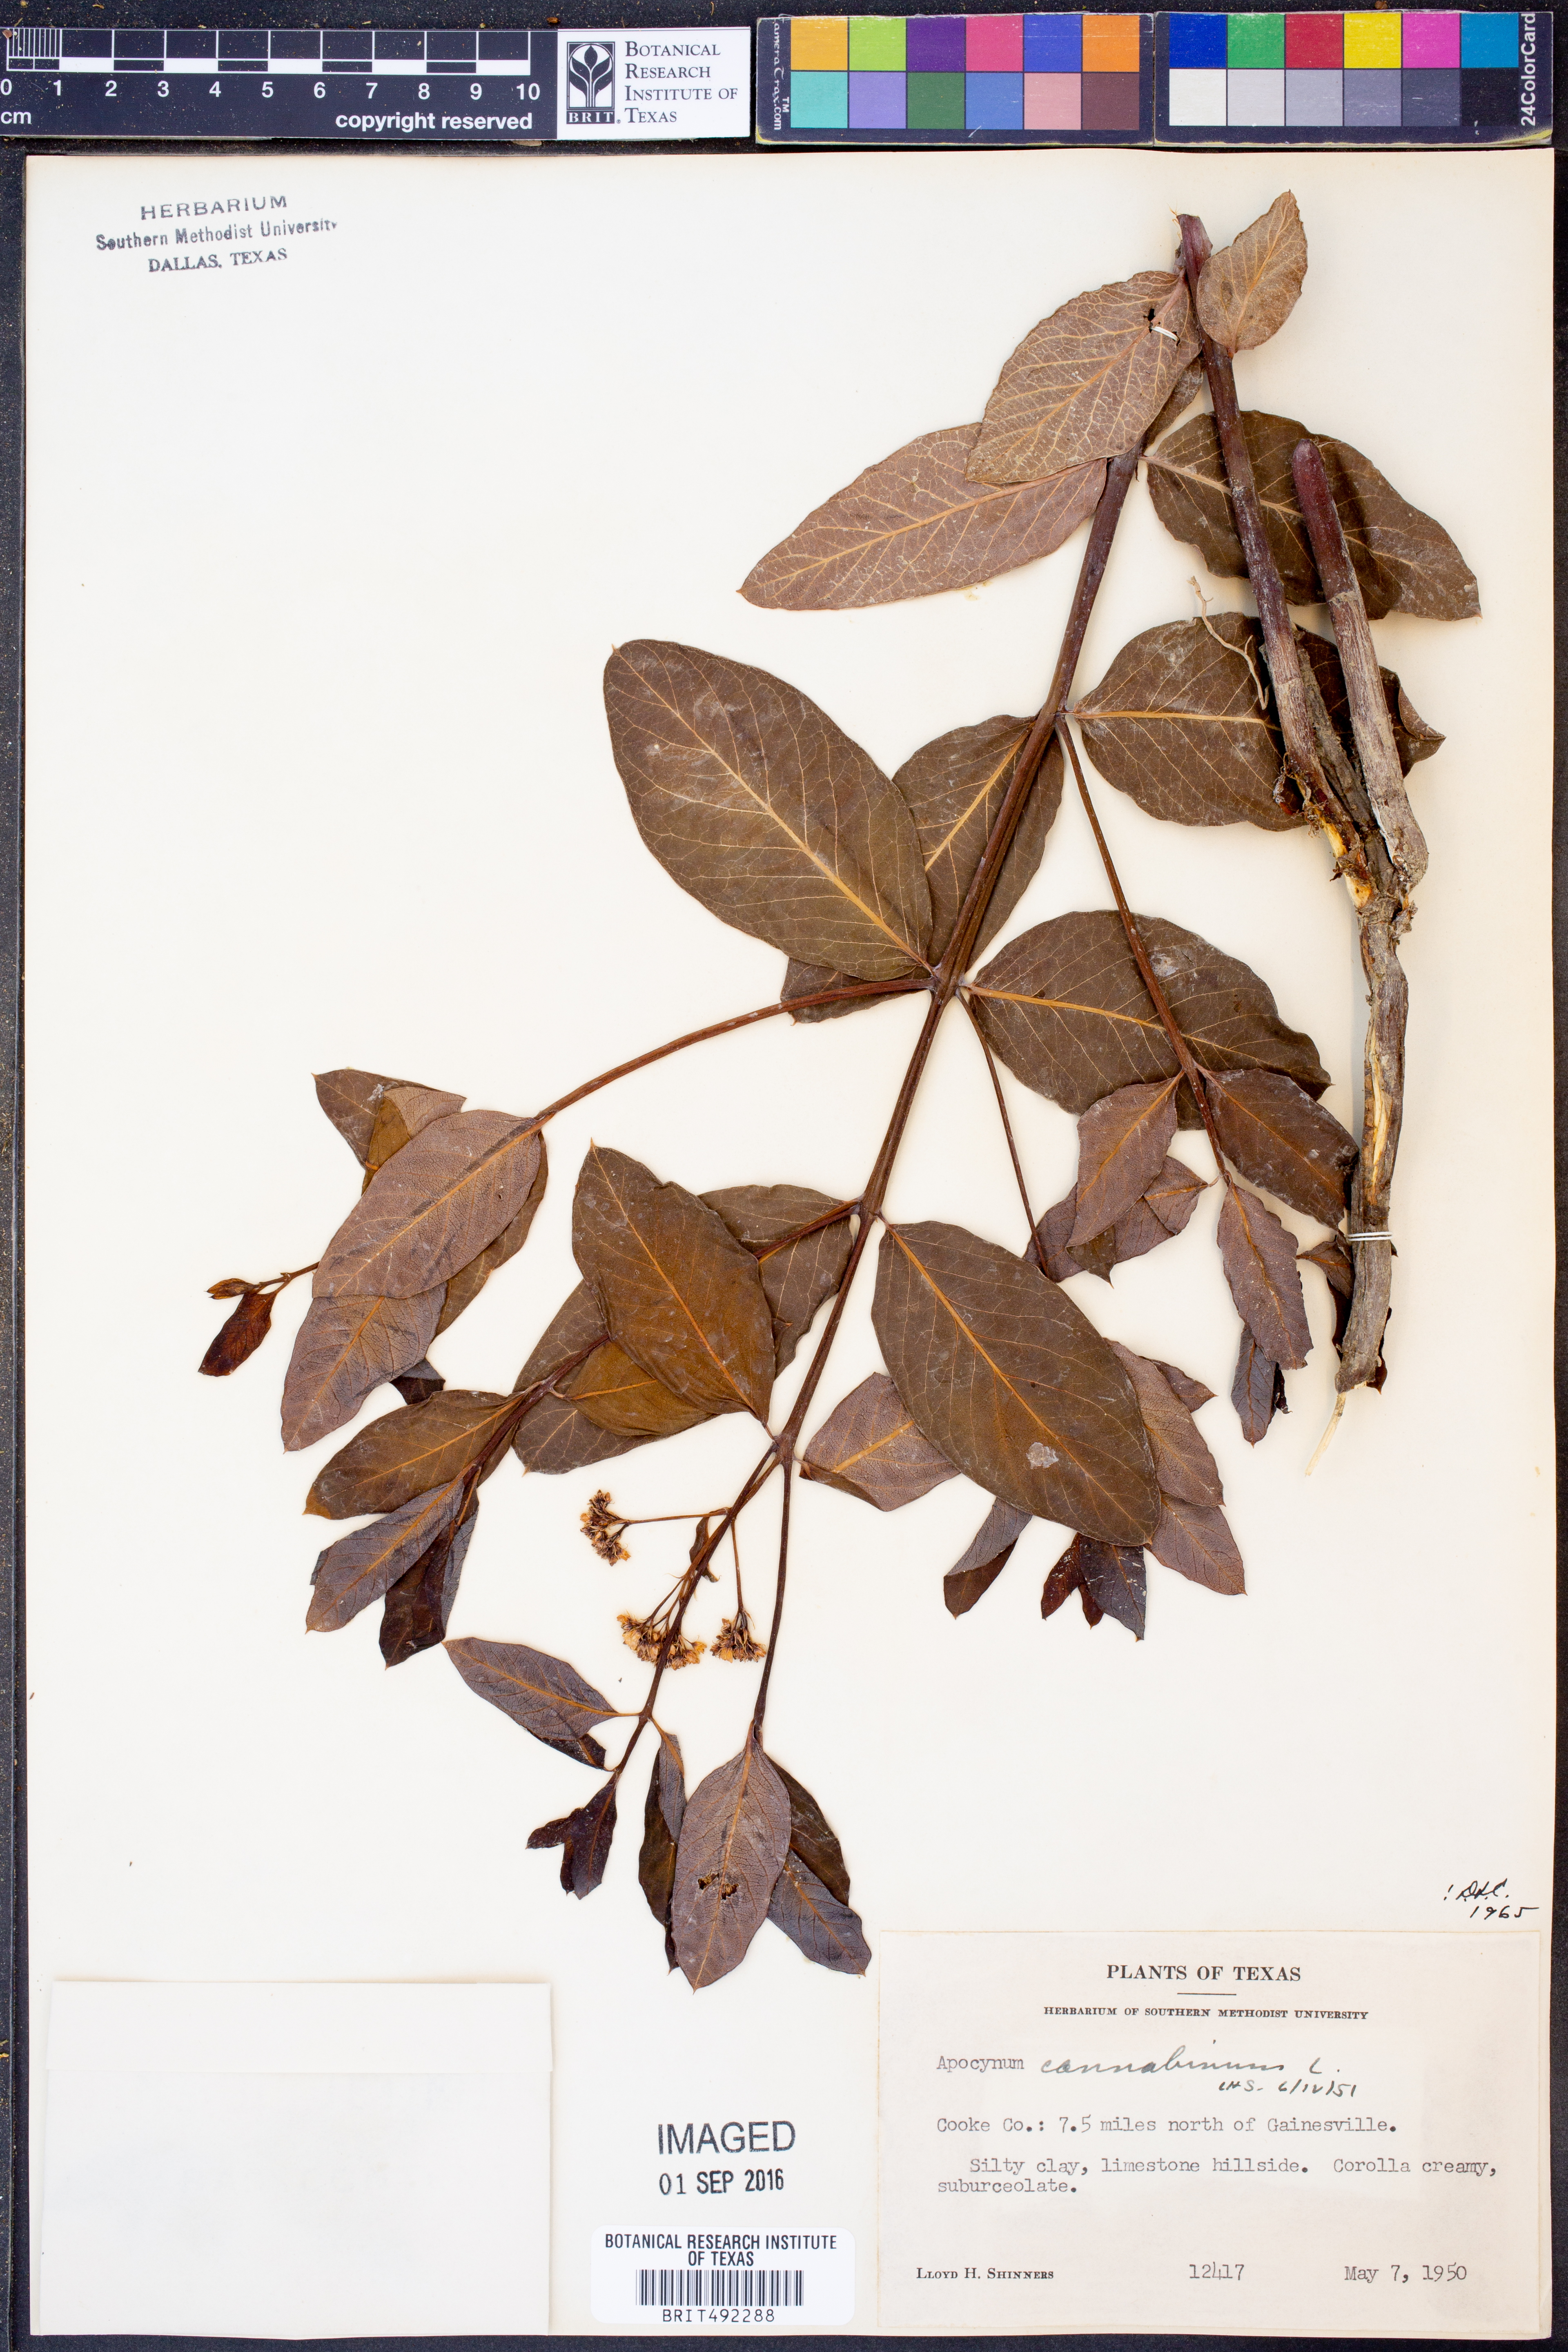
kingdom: Plantae
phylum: Tracheophyta
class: Magnoliopsida
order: Gentianales
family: Apocynaceae
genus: Apocynum
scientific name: Apocynum cannabinum
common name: Hemp dogbane
